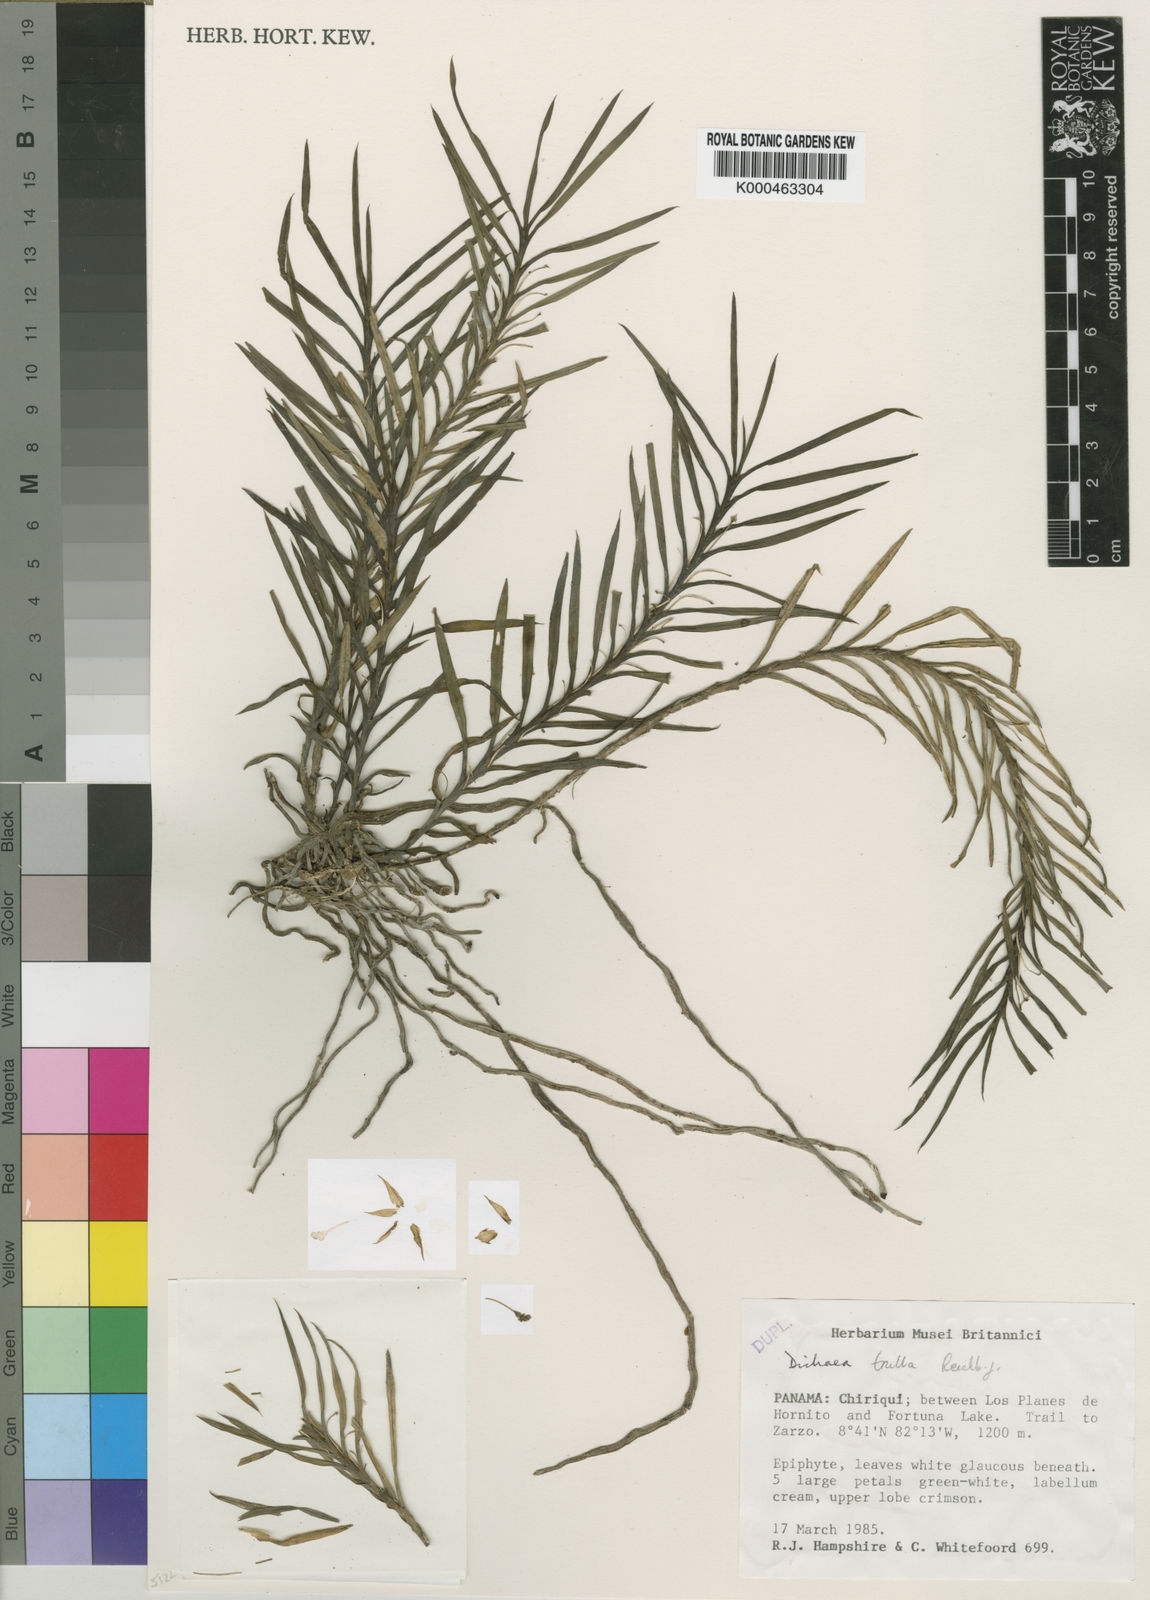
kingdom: Plantae
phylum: Tracheophyta
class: Liliopsida
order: Asparagales
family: Orchidaceae
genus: Dichaea
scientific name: Dichaea gracillima
